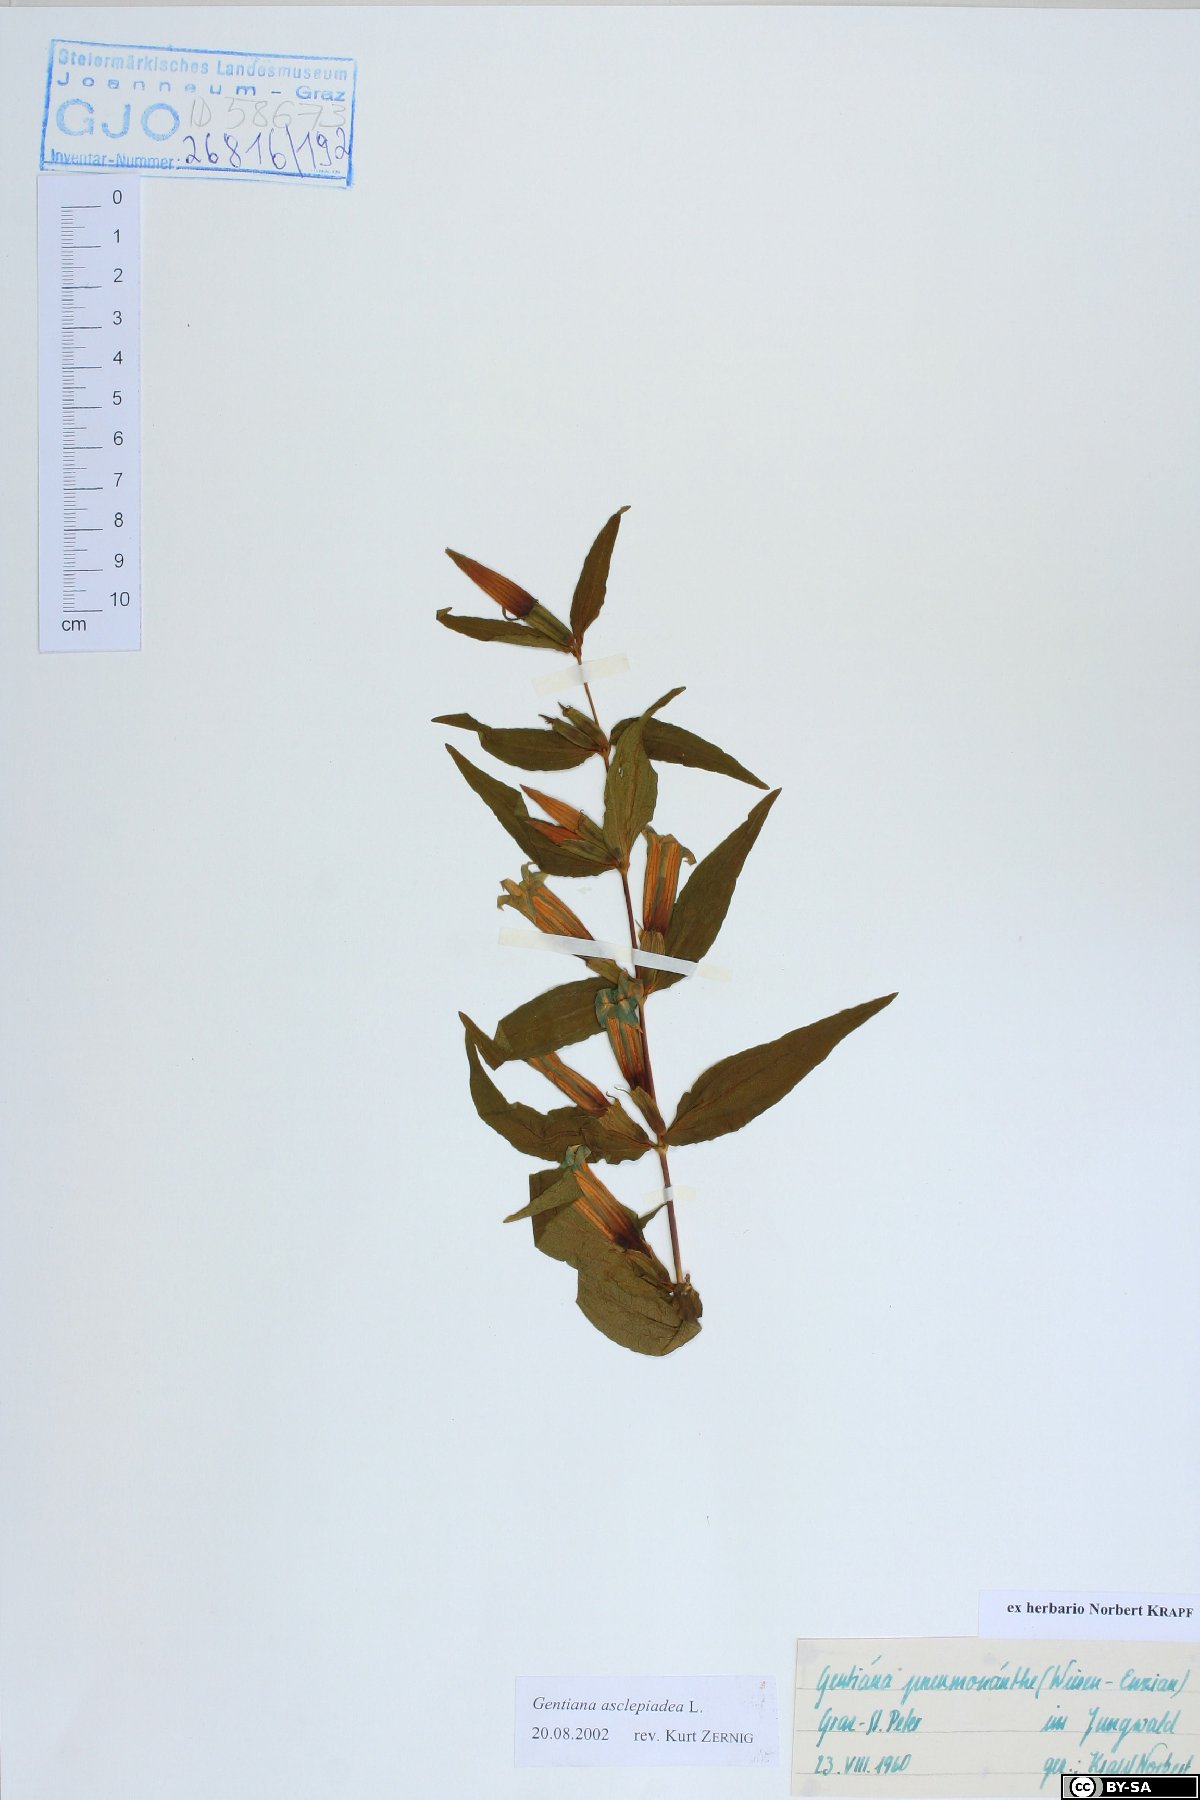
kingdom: Plantae
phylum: Tracheophyta
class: Magnoliopsida
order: Gentianales
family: Gentianaceae
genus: Gentiana
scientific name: Gentiana asclepiadea
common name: Willow gentian
